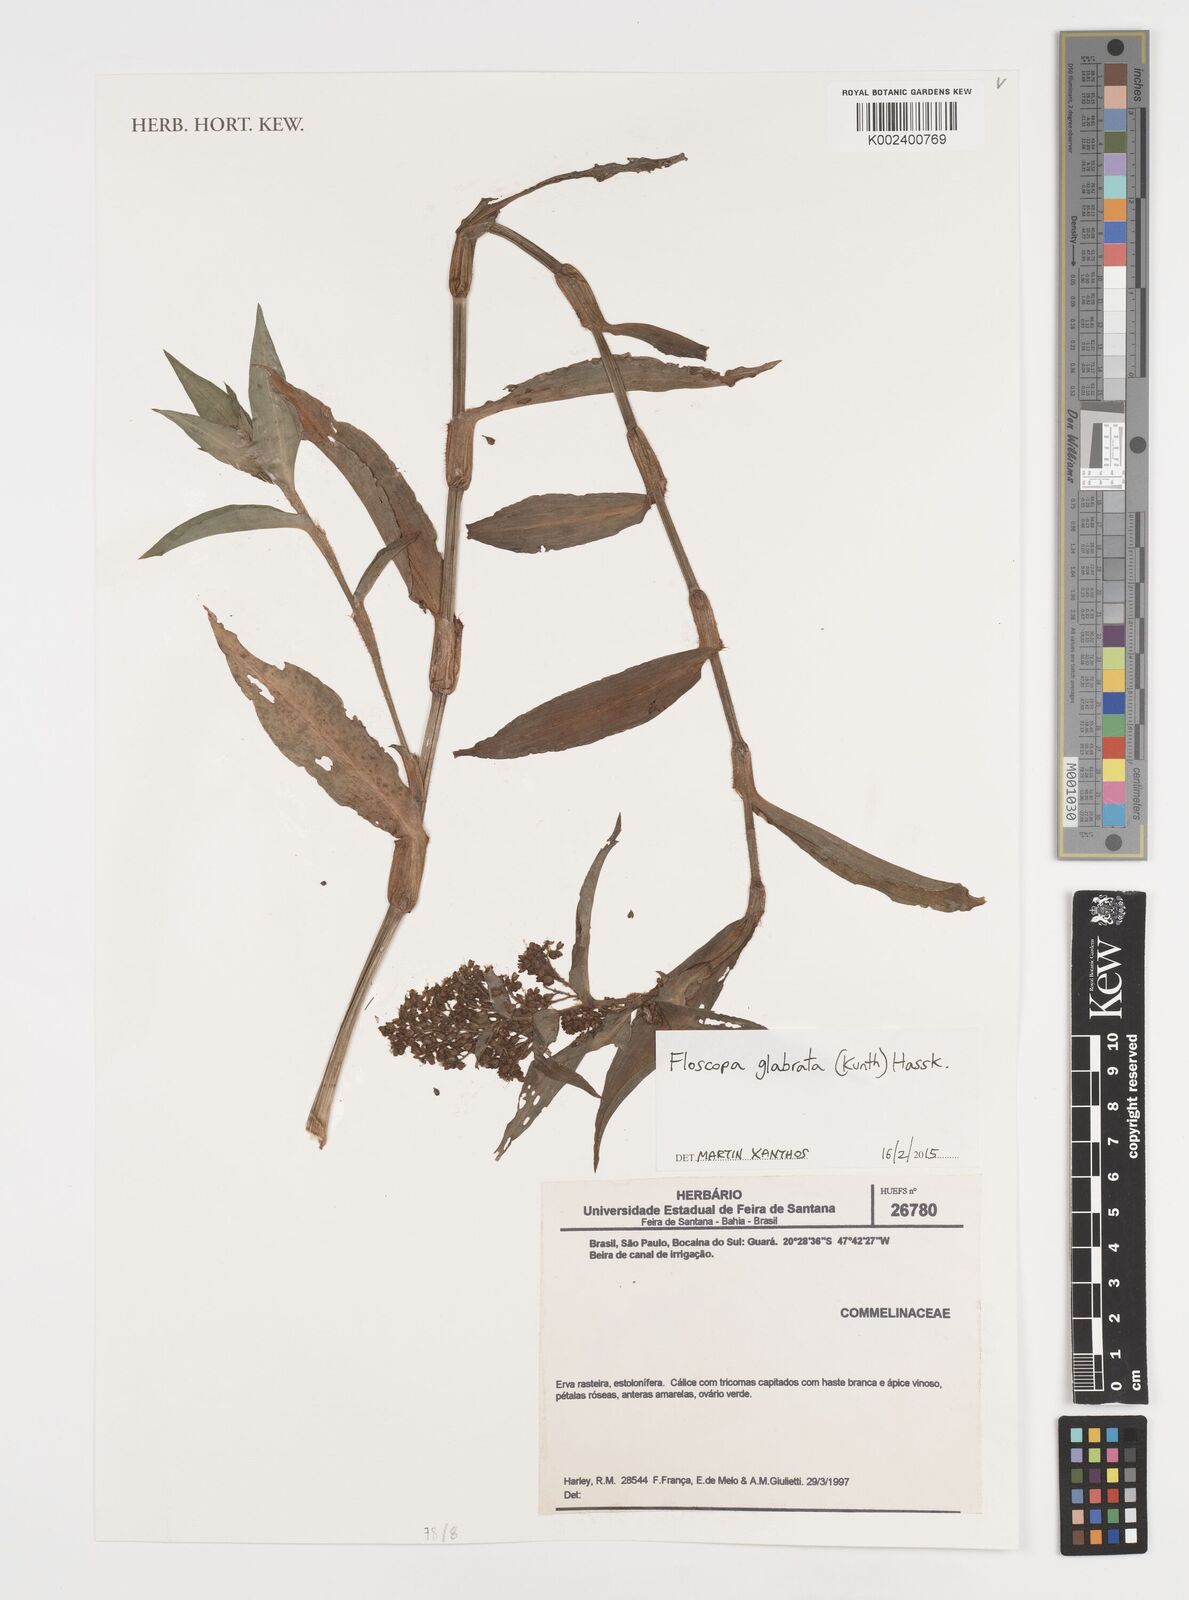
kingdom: Plantae
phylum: Tracheophyta
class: Liliopsida
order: Commelinales
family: Commelinaceae
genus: Floscopa
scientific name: Floscopa glabrata
